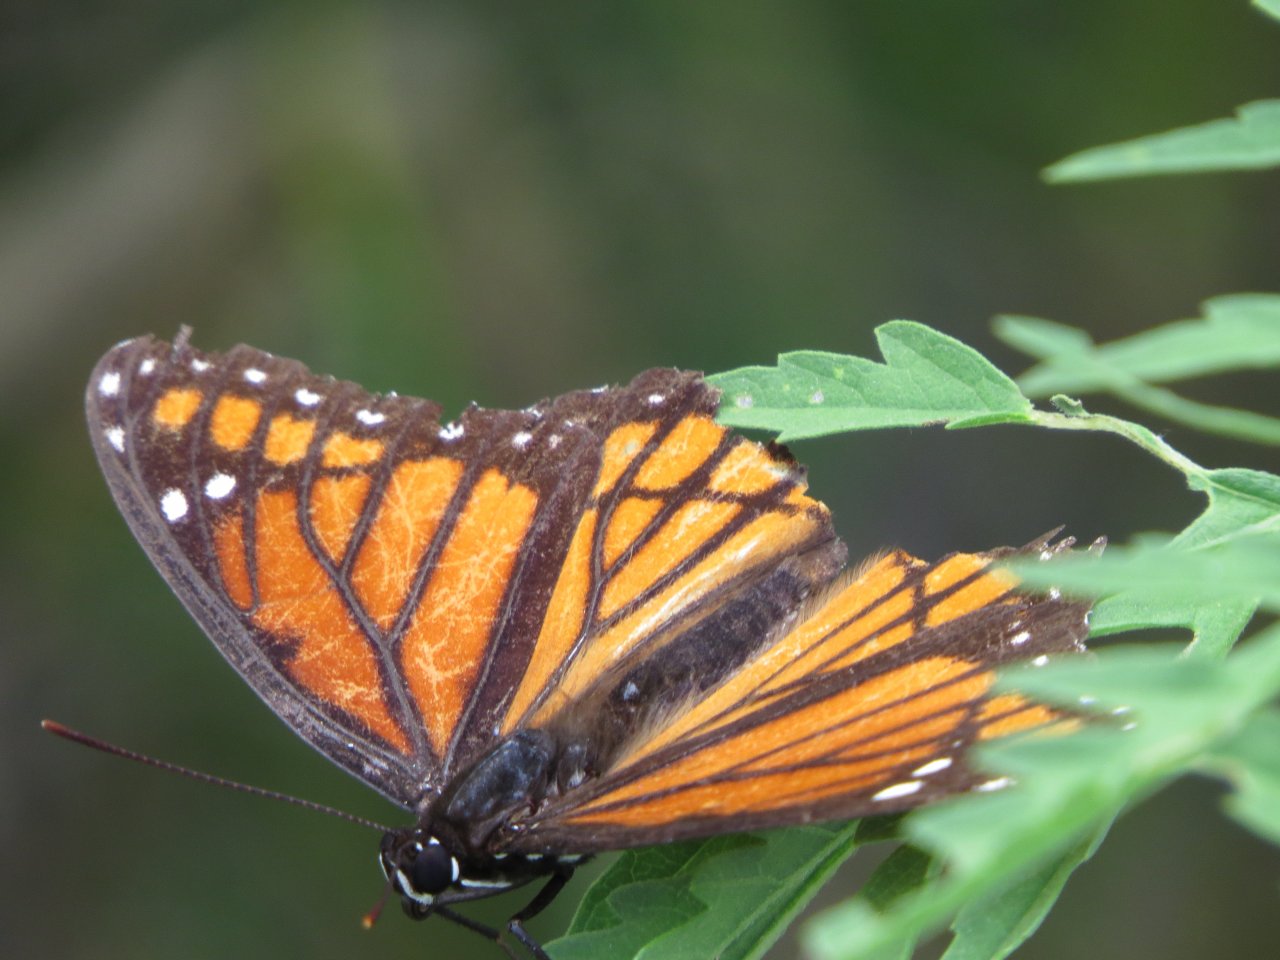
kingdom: Animalia
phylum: Arthropoda
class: Insecta
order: Lepidoptera
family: Nymphalidae
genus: Limenitis
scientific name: Limenitis archippus
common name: Viceroy
